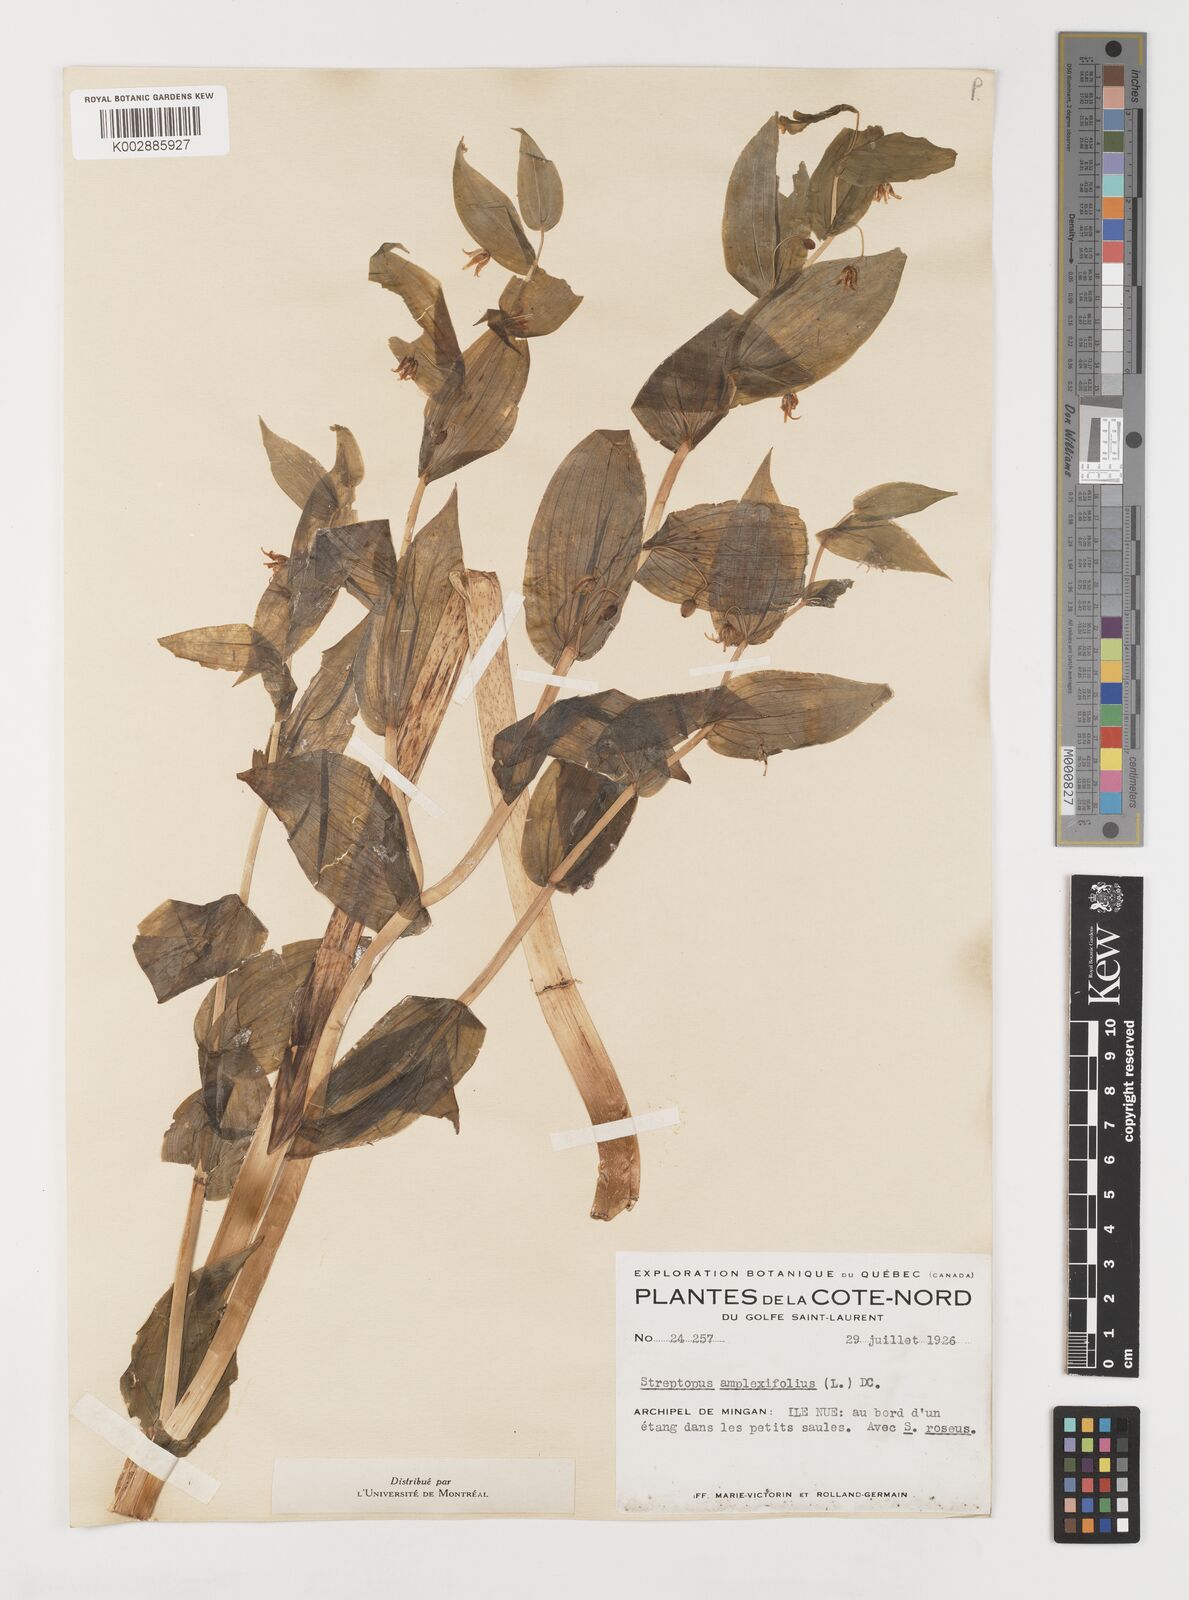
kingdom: Plantae
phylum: Tracheophyta
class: Liliopsida
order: Liliales
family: Liliaceae
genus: Streptopus
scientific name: Streptopus
